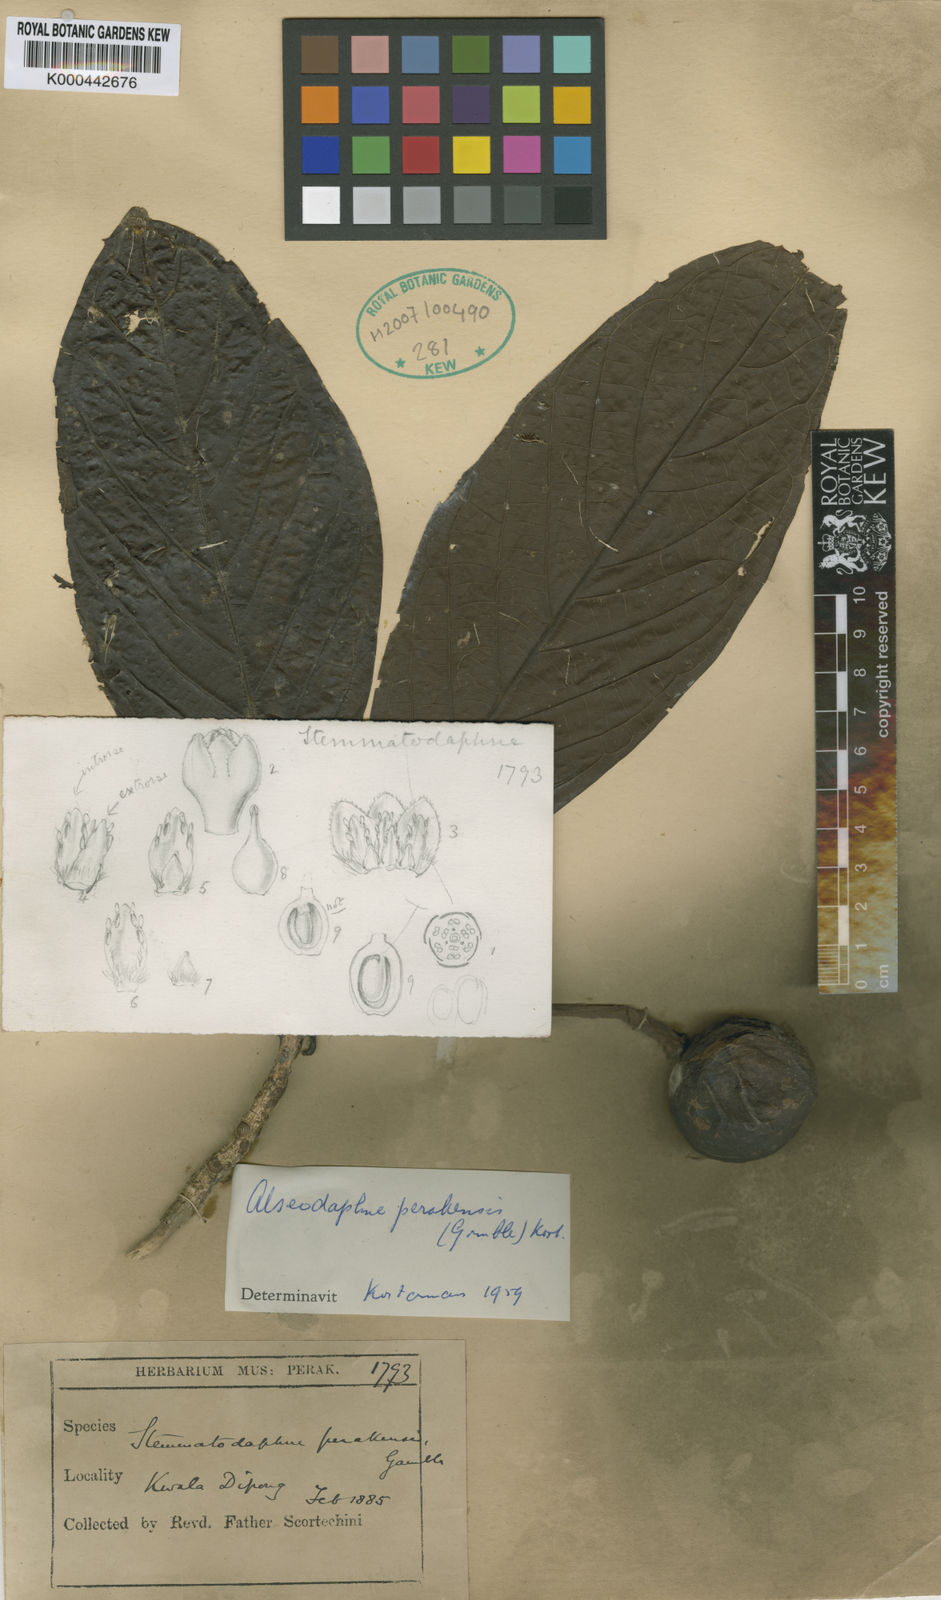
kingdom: Plantae
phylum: Tracheophyta
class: Magnoliopsida
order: Laurales
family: Lauraceae
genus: Alseodaphne
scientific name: Alseodaphne perakensis
